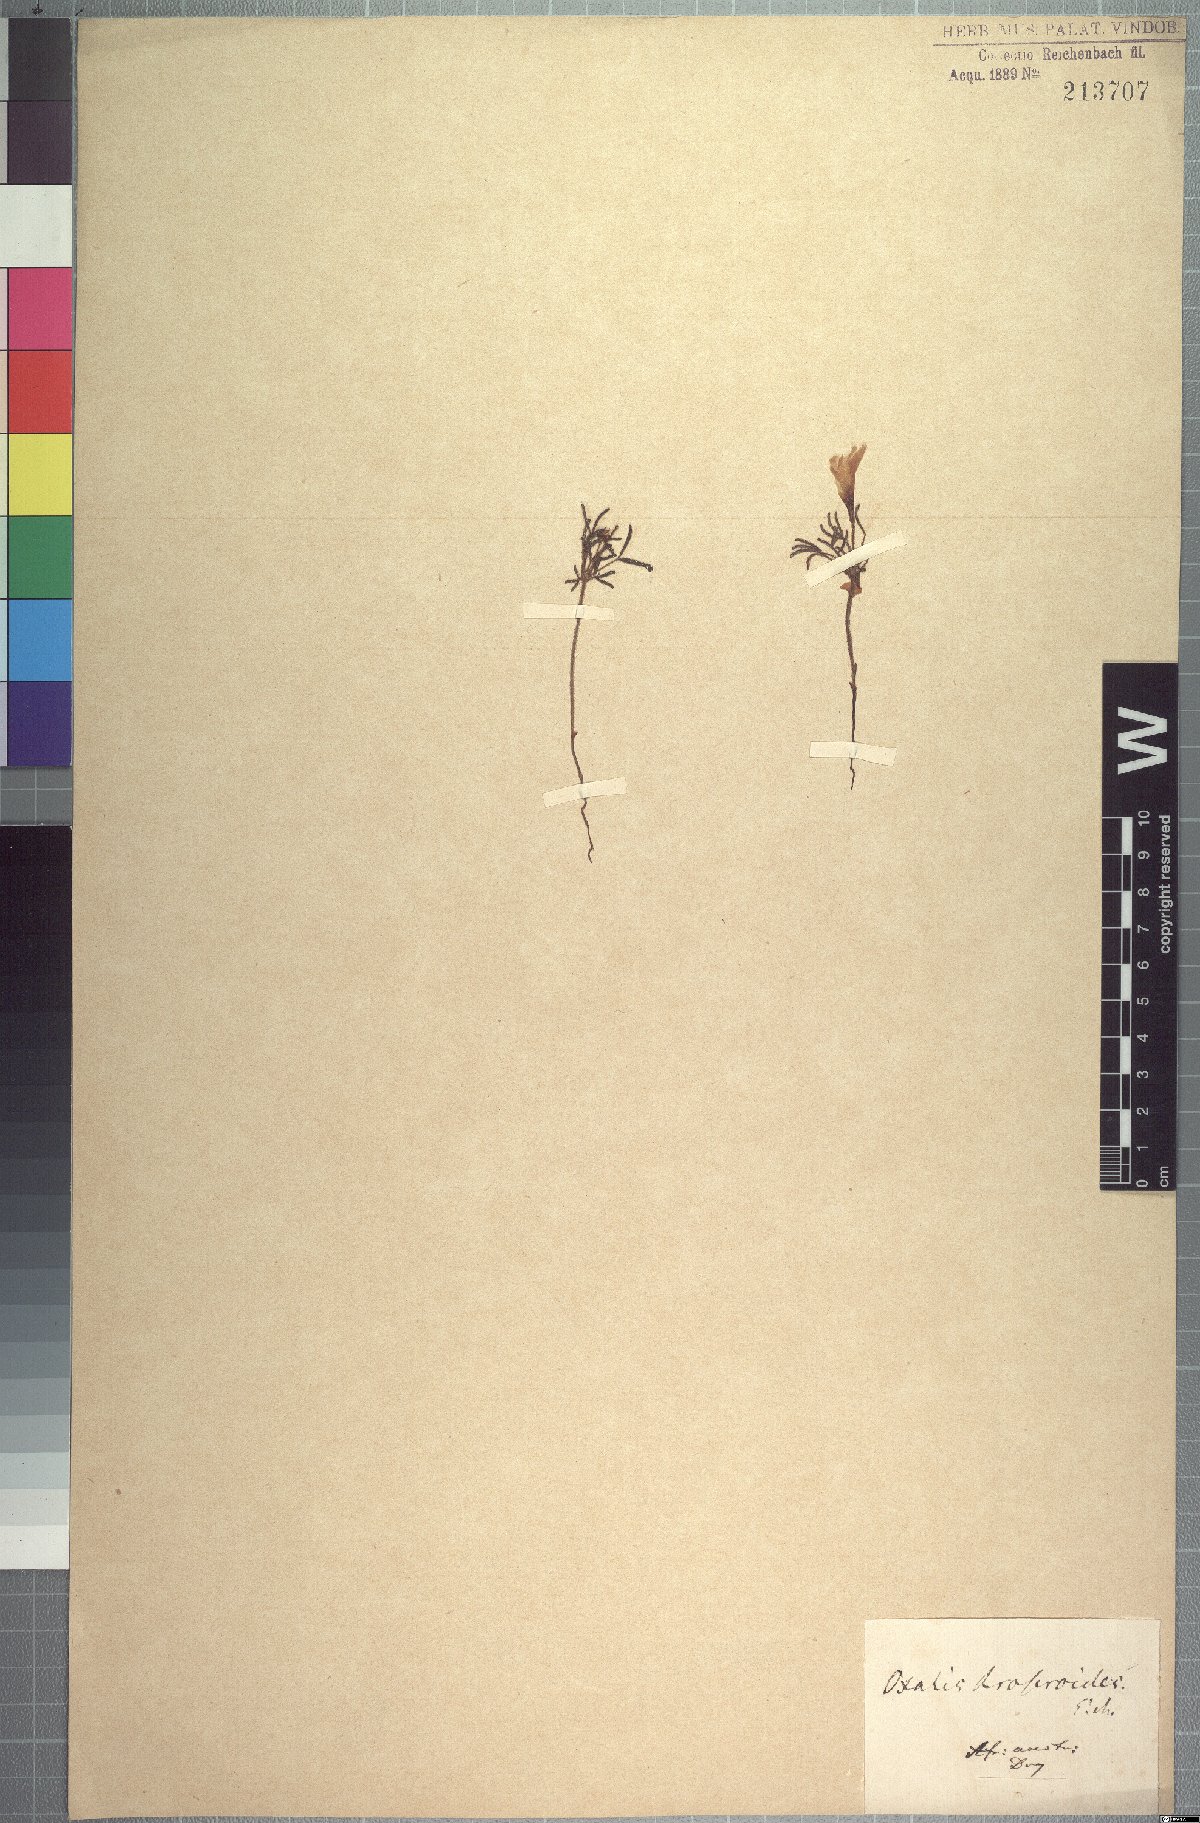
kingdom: Plantae
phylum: Tracheophyta
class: Magnoliopsida
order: Oxalidales
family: Oxalidaceae
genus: Oxalis
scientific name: Oxalis droseroides
